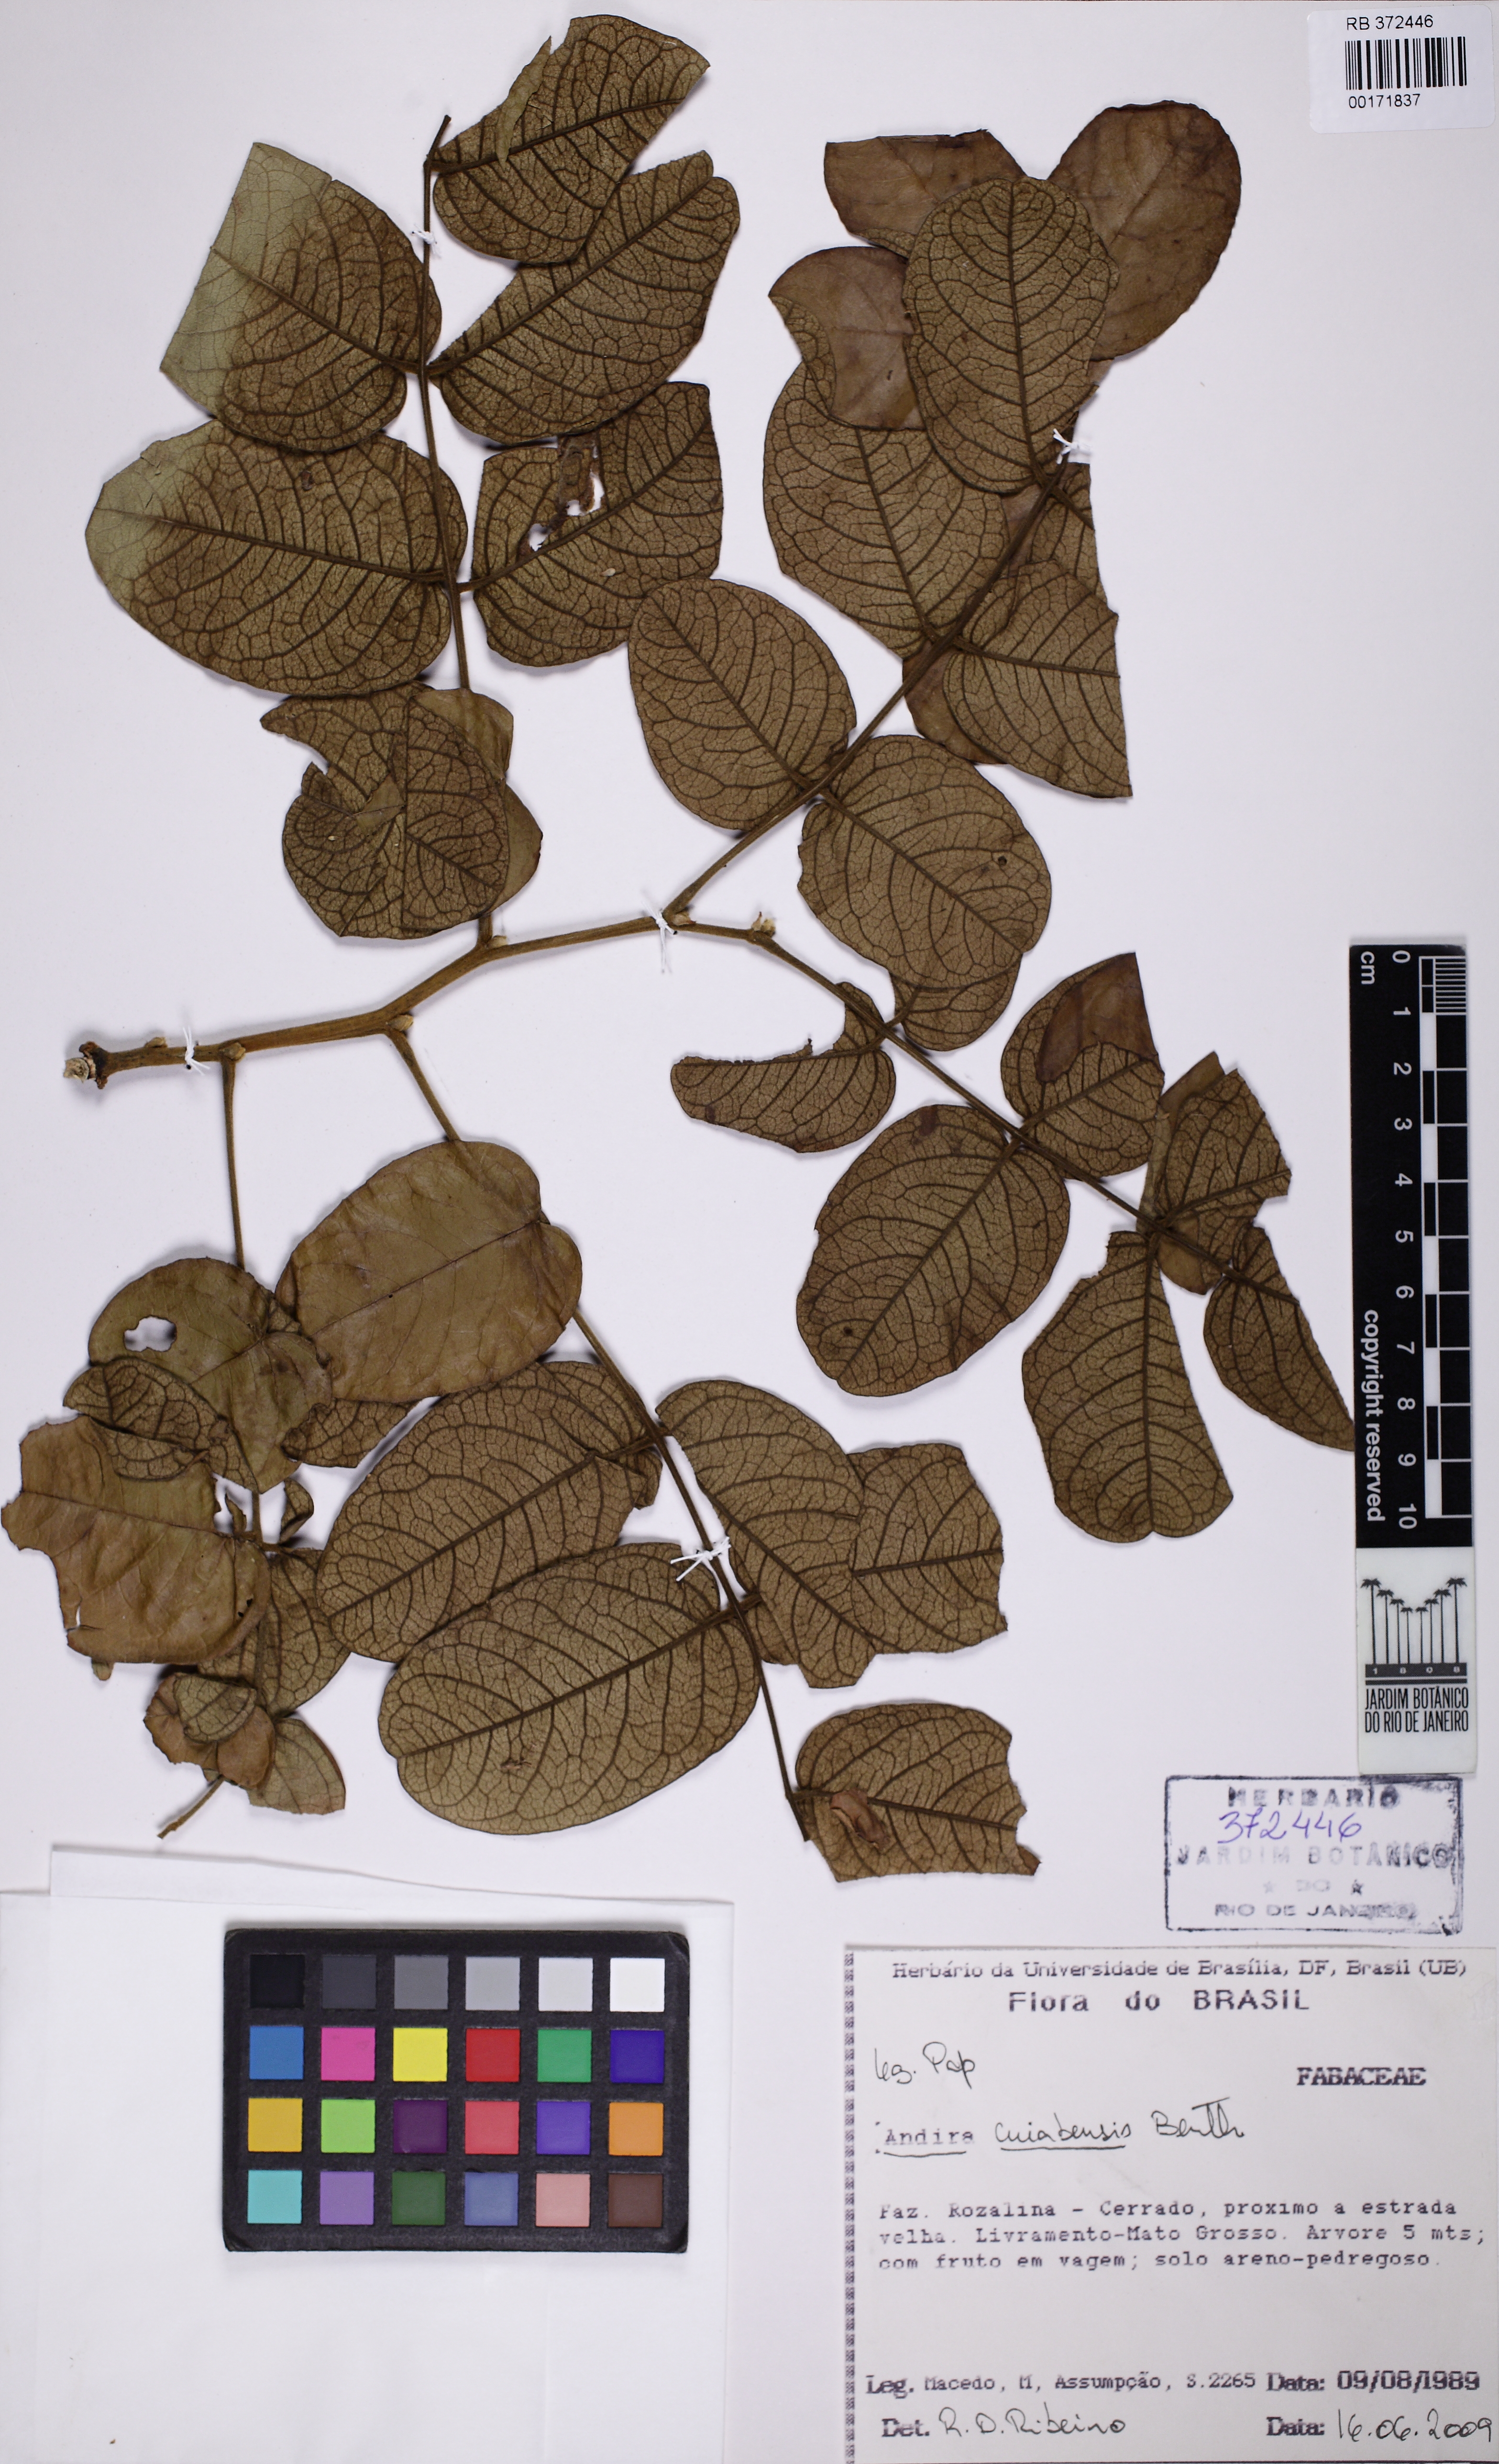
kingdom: Plantae
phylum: Tracheophyta
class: Magnoliopsida
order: Fabales
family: Fabaceae
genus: Andira
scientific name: Andira cujabensis
